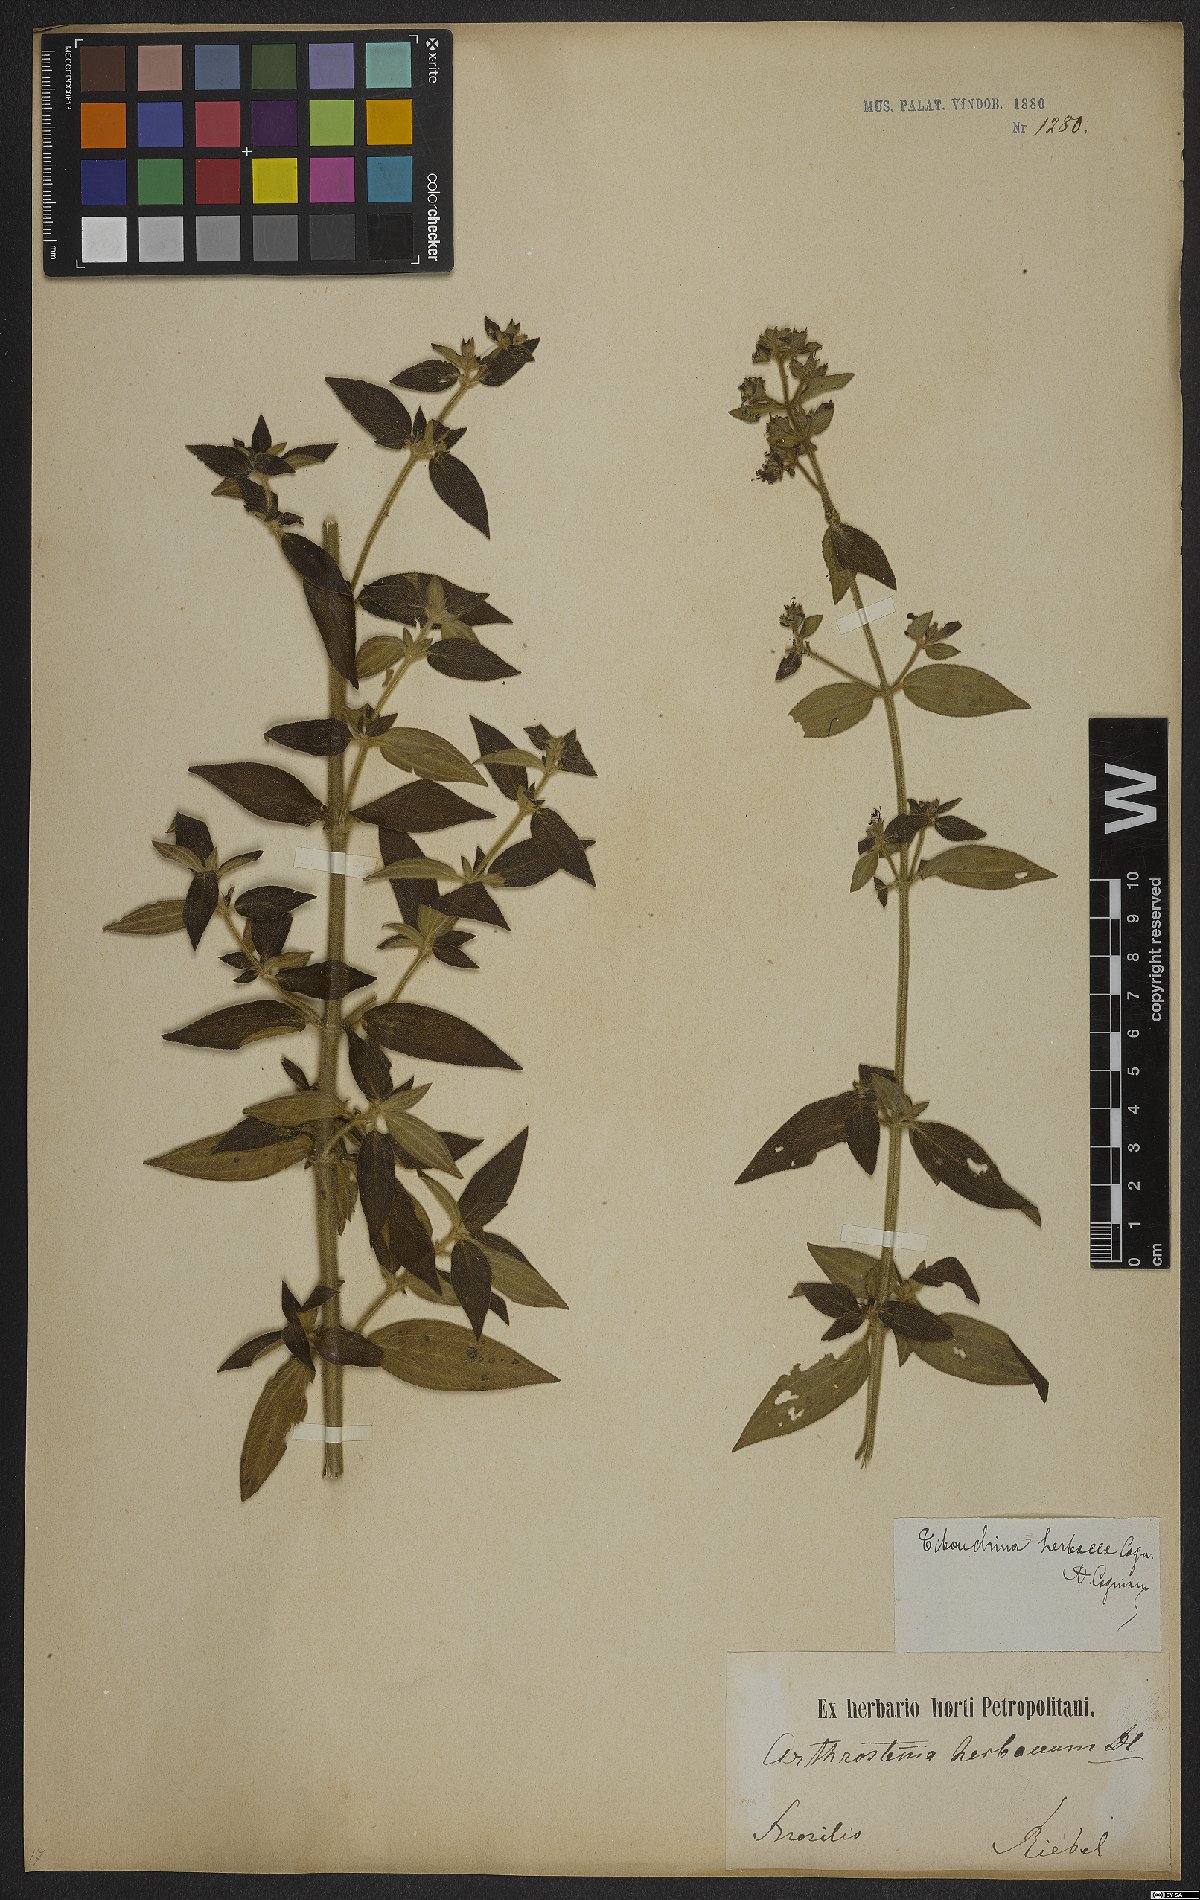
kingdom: Plantae
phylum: Tracheophyta
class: Magnoliopsida
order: Myrtales
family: Melastomataceae
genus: Chaetogastra
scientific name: Chaetogastra herbacea
